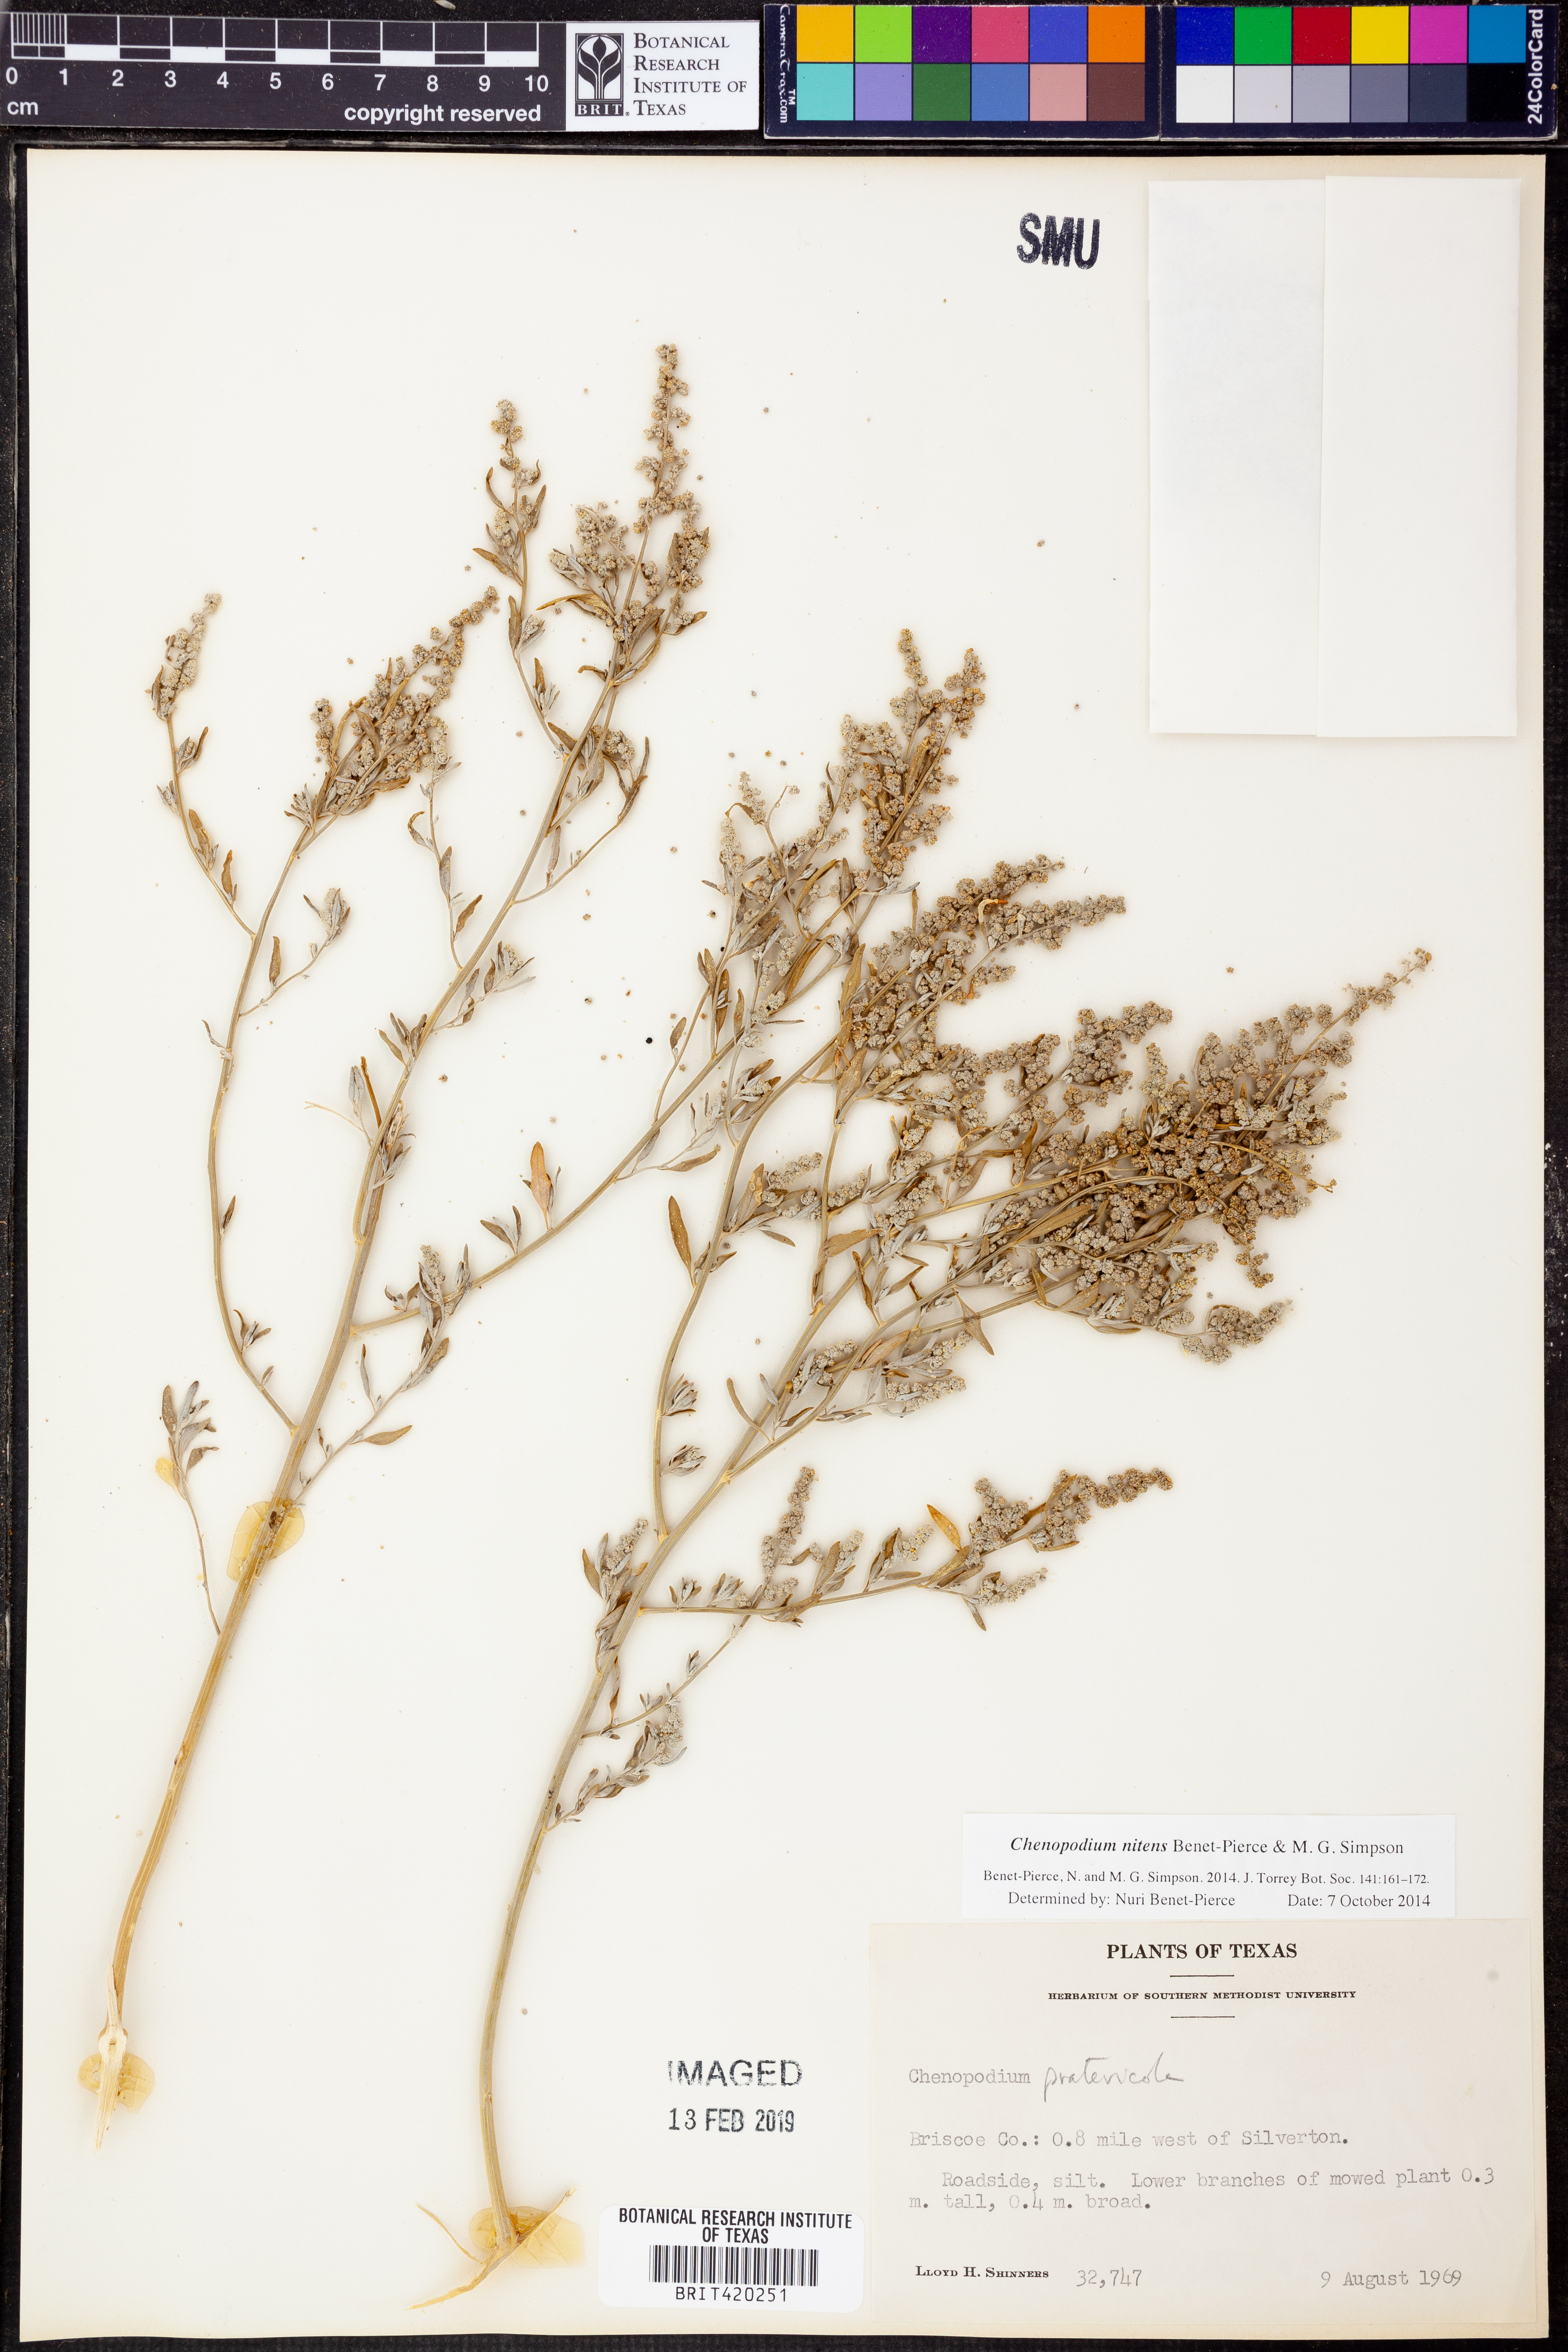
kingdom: Plantae
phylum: Tracheophyta
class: Magnoliopsida
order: Caryophyllales
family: Amaranthaceae
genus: Chenopodium
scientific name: Chenopodium nitens
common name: Shiny-seed goosefoot
